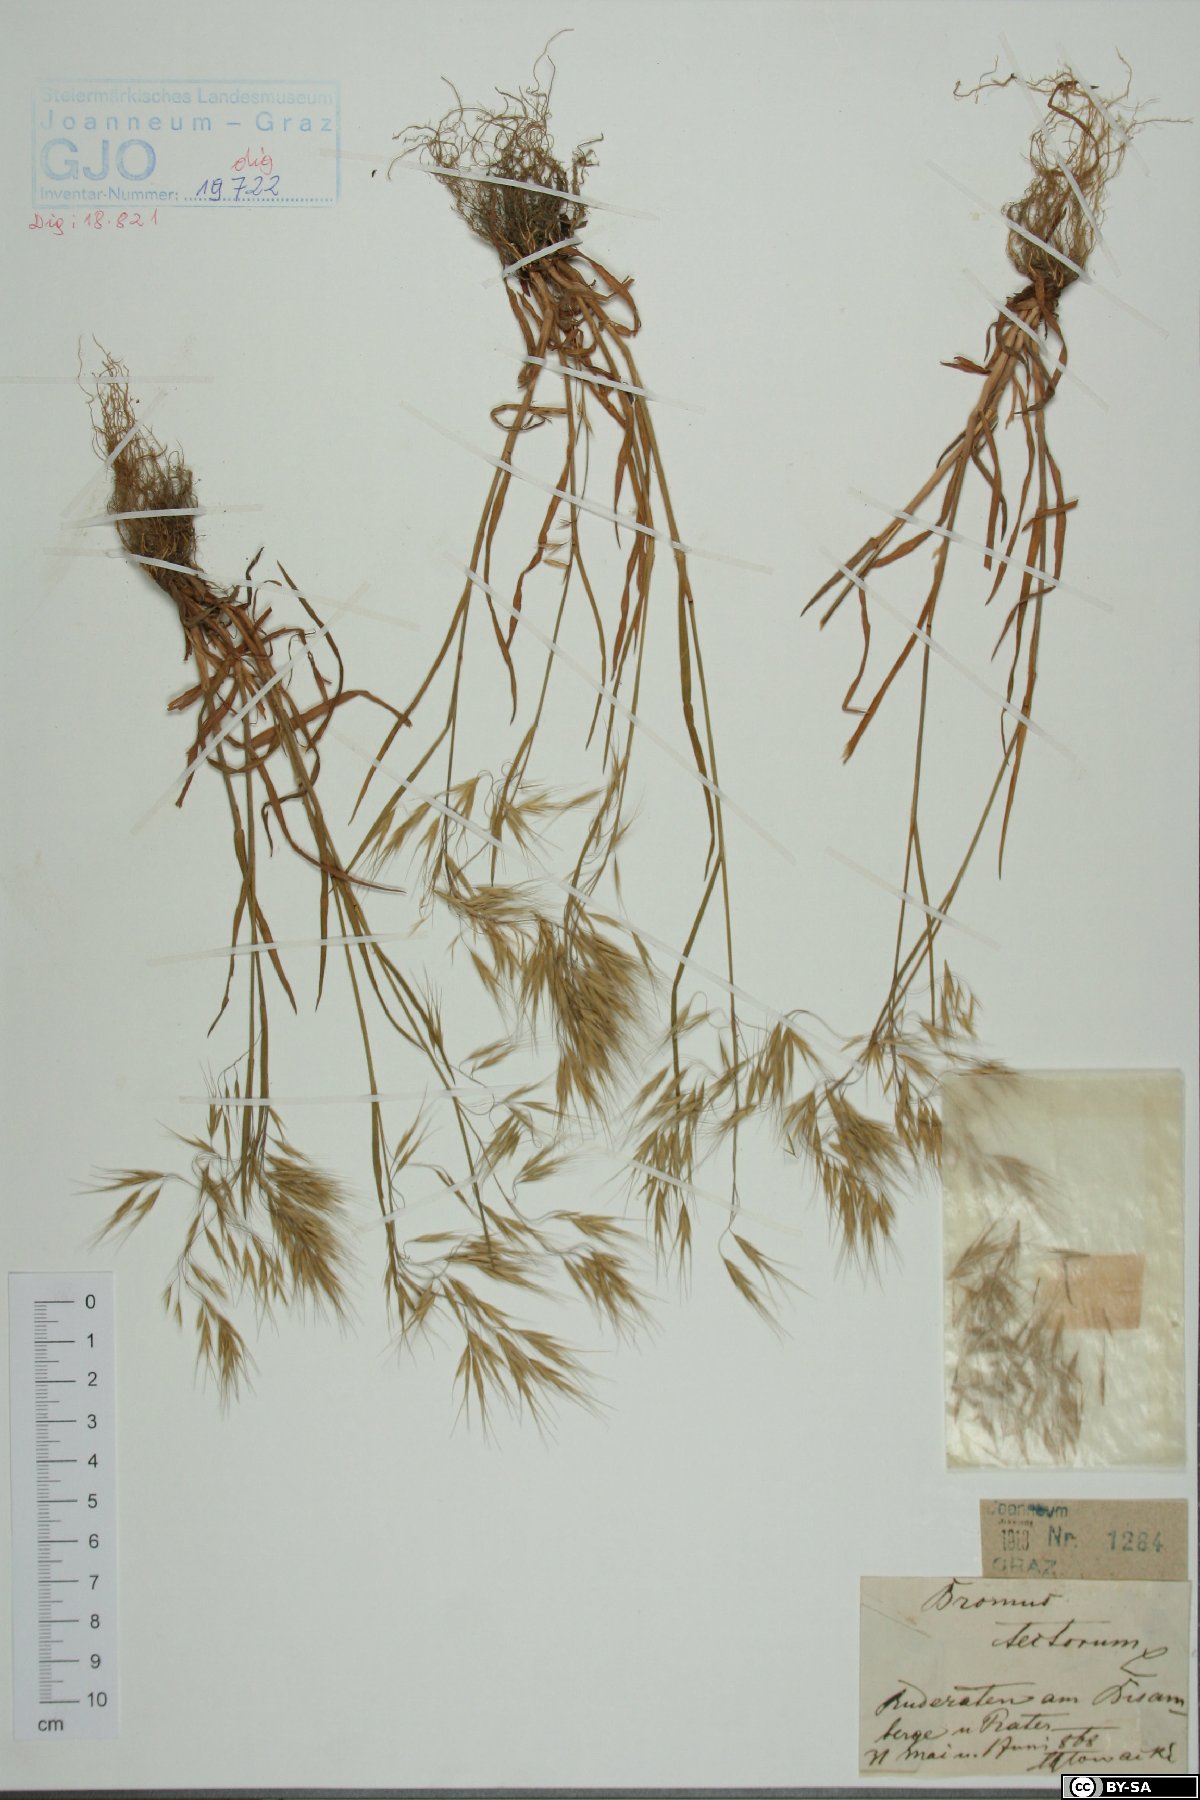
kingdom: Plantae
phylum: Tracheophyta
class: Liliopsida
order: Poales
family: Poaceae
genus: Bromus
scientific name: Bromus tectorum
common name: Cheatgrass
